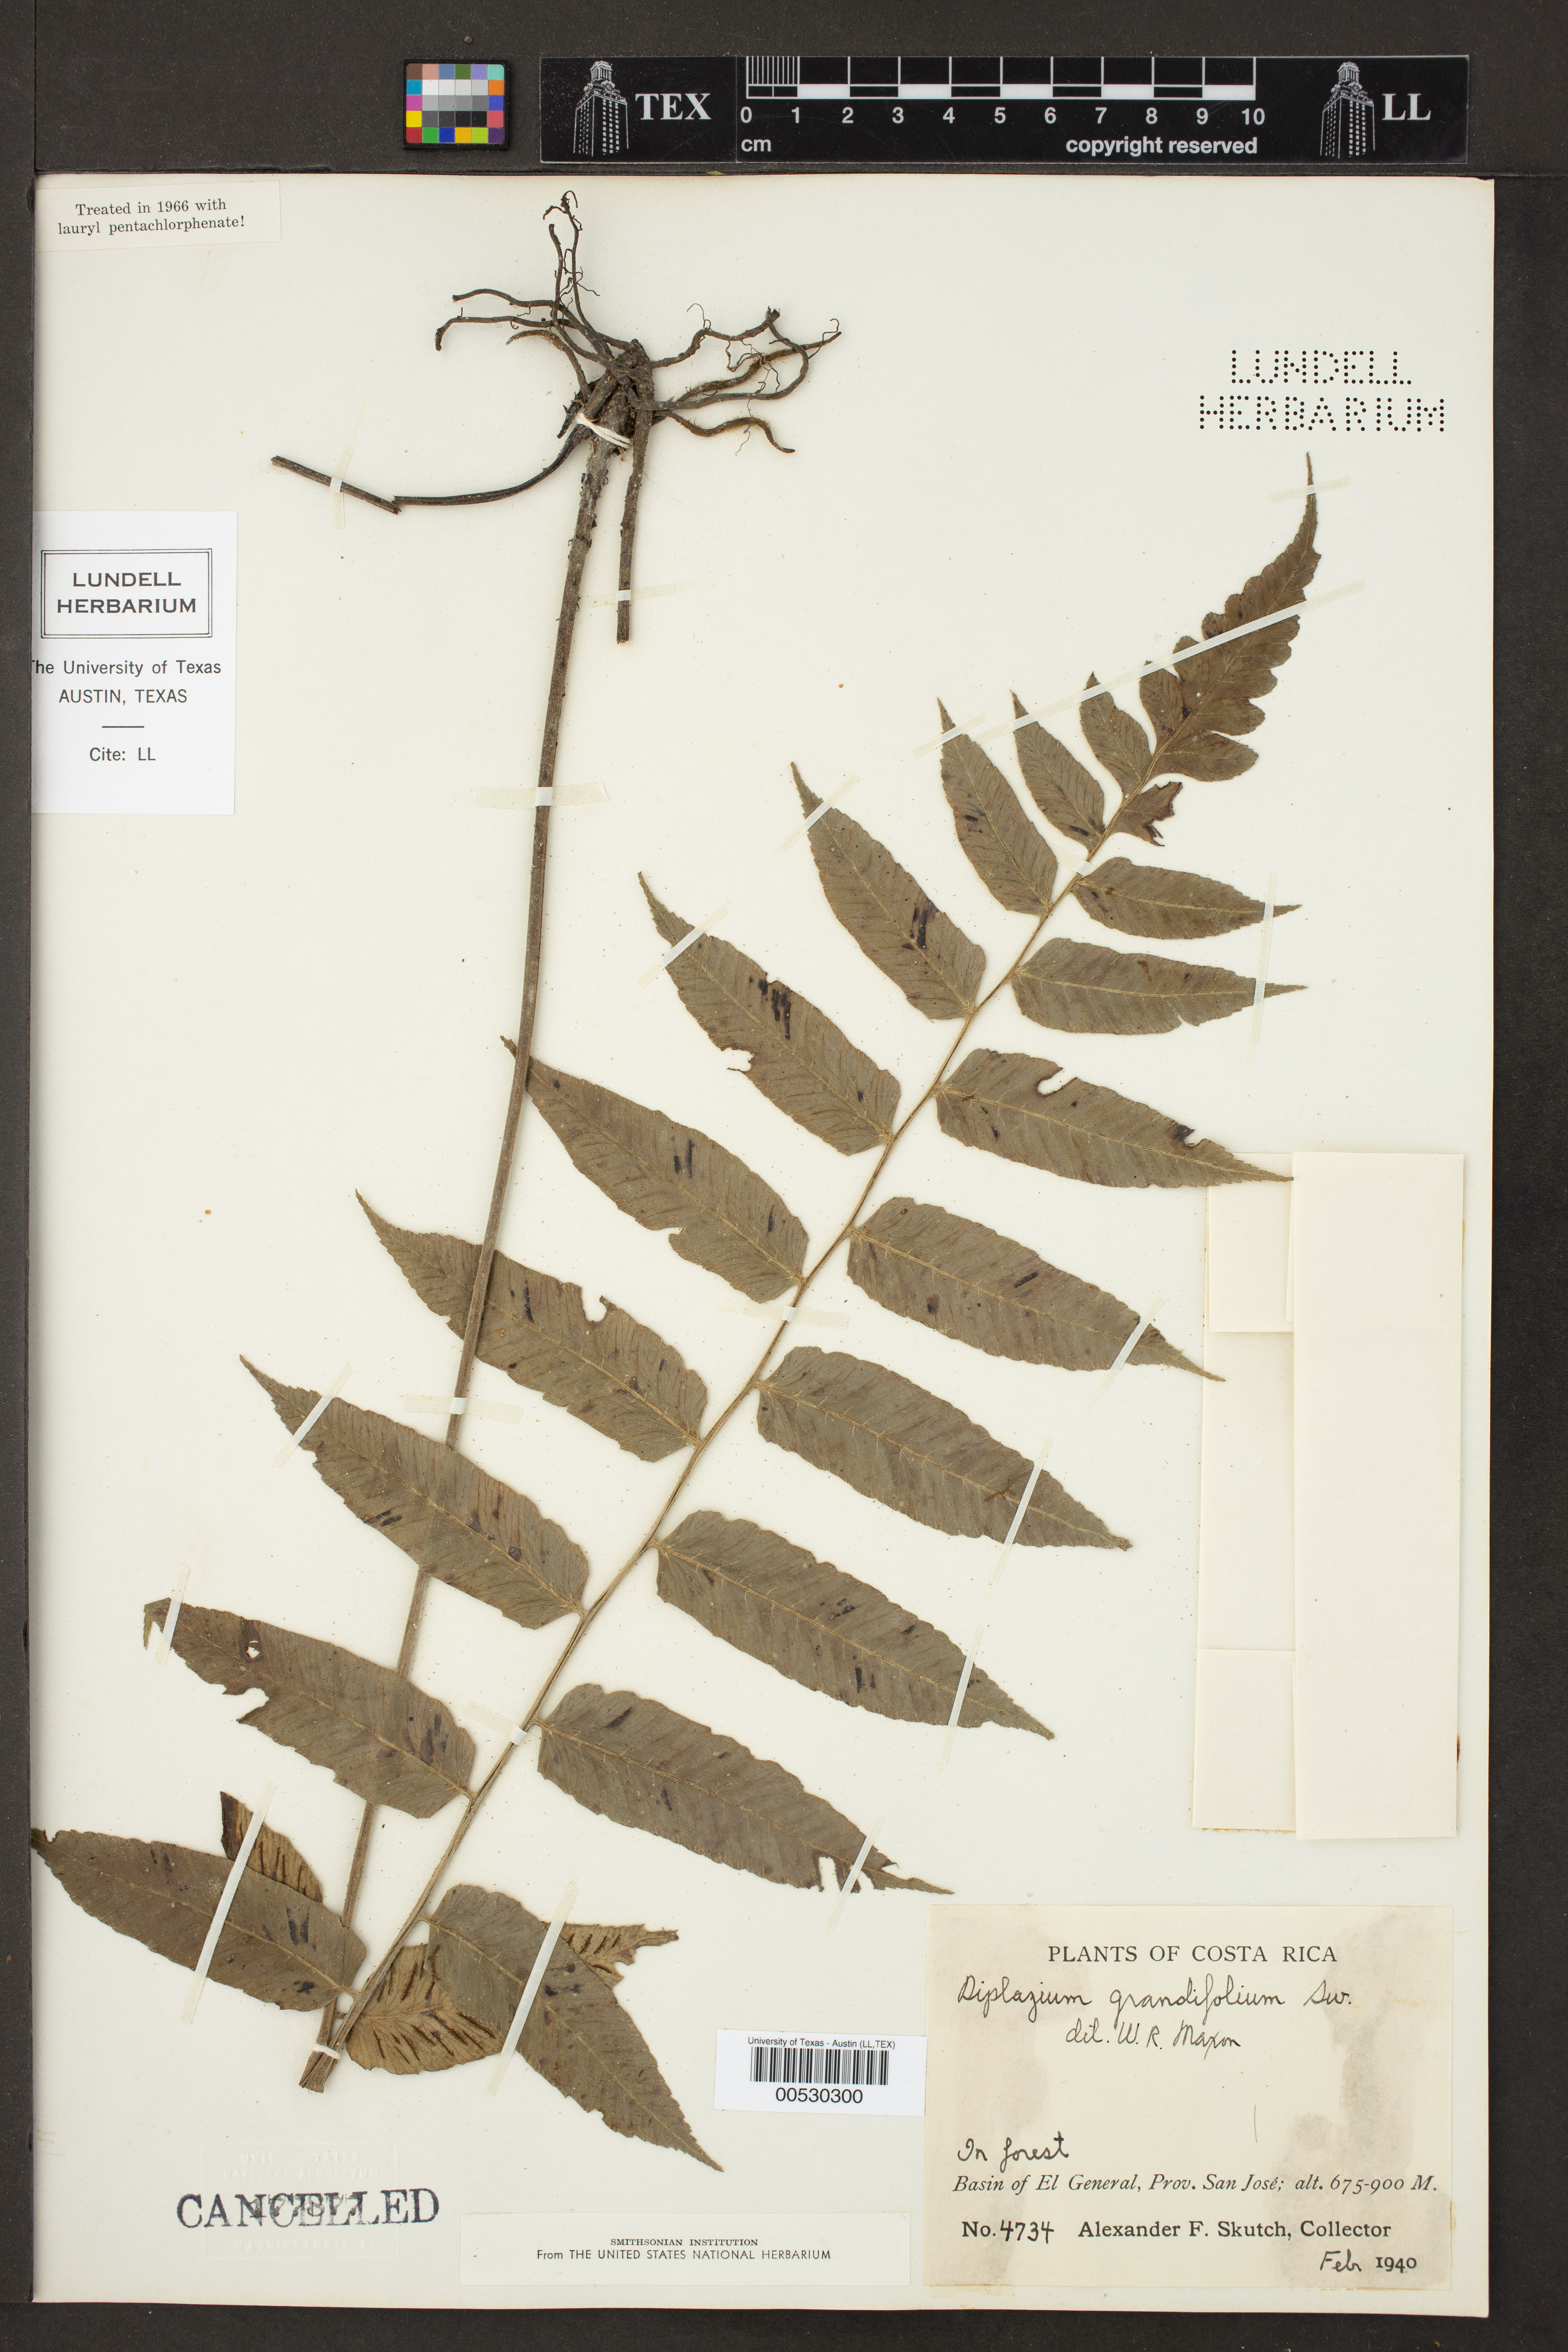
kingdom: Plantae
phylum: Tracheophyta
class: Polypodiopsida
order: Polypodiales
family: Athyriaceae
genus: Diplazium
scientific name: Diplazium grandifolium
